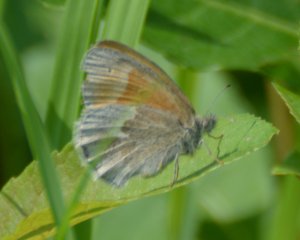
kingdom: Animalia
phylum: Arthropoda
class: Insecta
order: Lepidoptera
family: Nymphalidae
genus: Coenonympha
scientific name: Coenonympha tullia
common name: Large Heath
